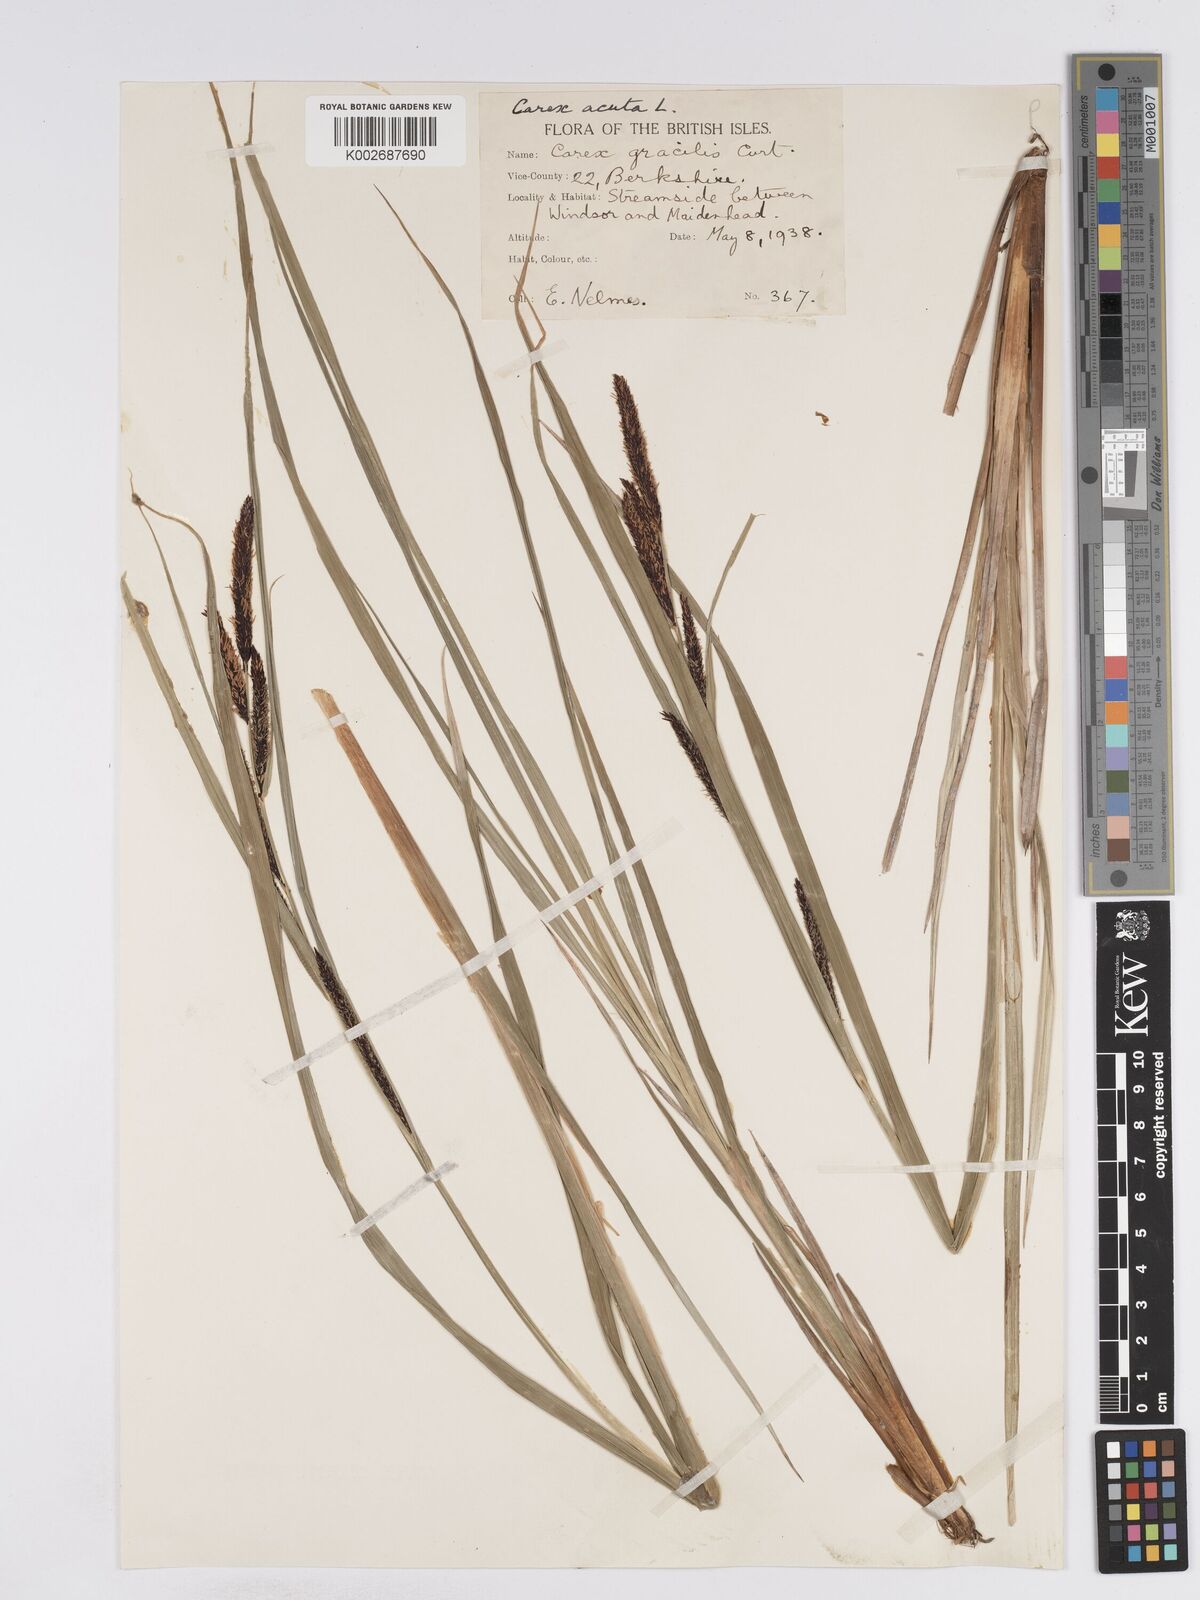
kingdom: Plantae
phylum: Tracheophyta
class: Liliopsida
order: Poales
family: Cyperaceae
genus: Carex
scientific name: Carex acuta
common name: Slender tufted-sedge
